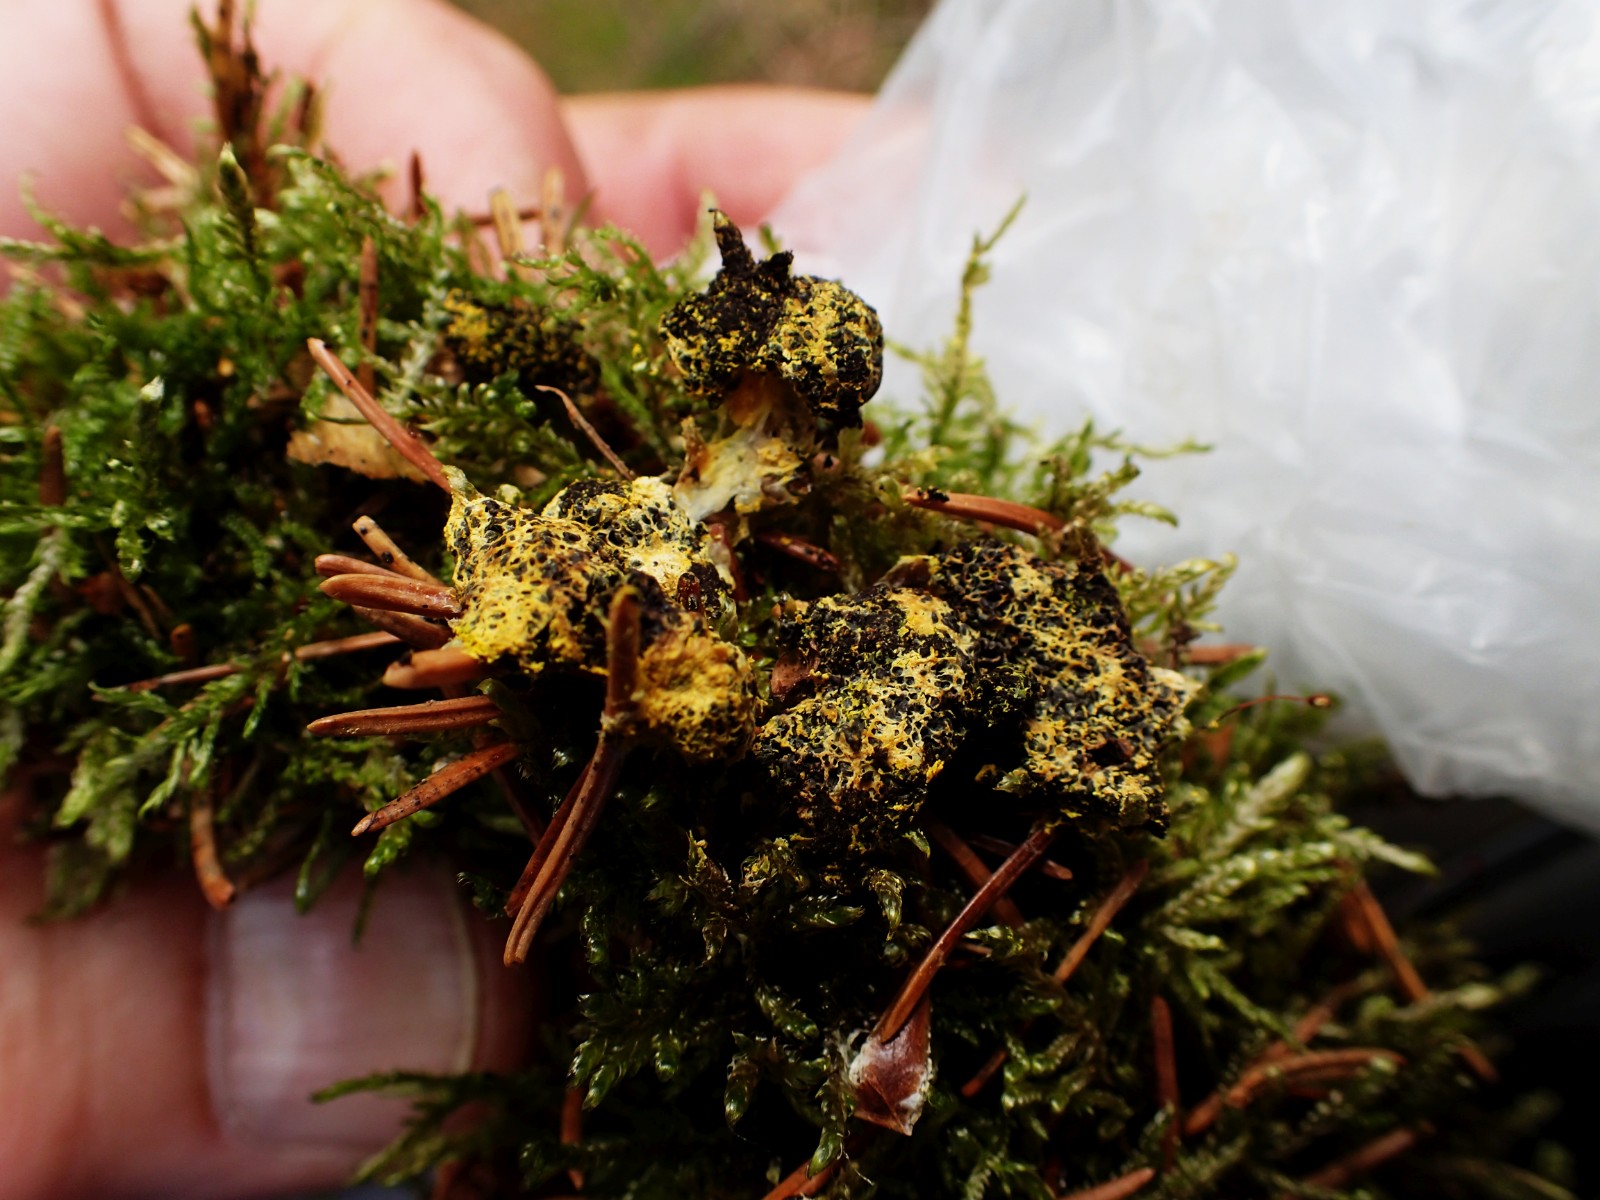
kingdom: Protozoa
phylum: Mycetozoa
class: Myxomycetes
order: Physarales
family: Physaraceae
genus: Fuligo
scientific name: Fuligo septica
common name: gul troldsmør
